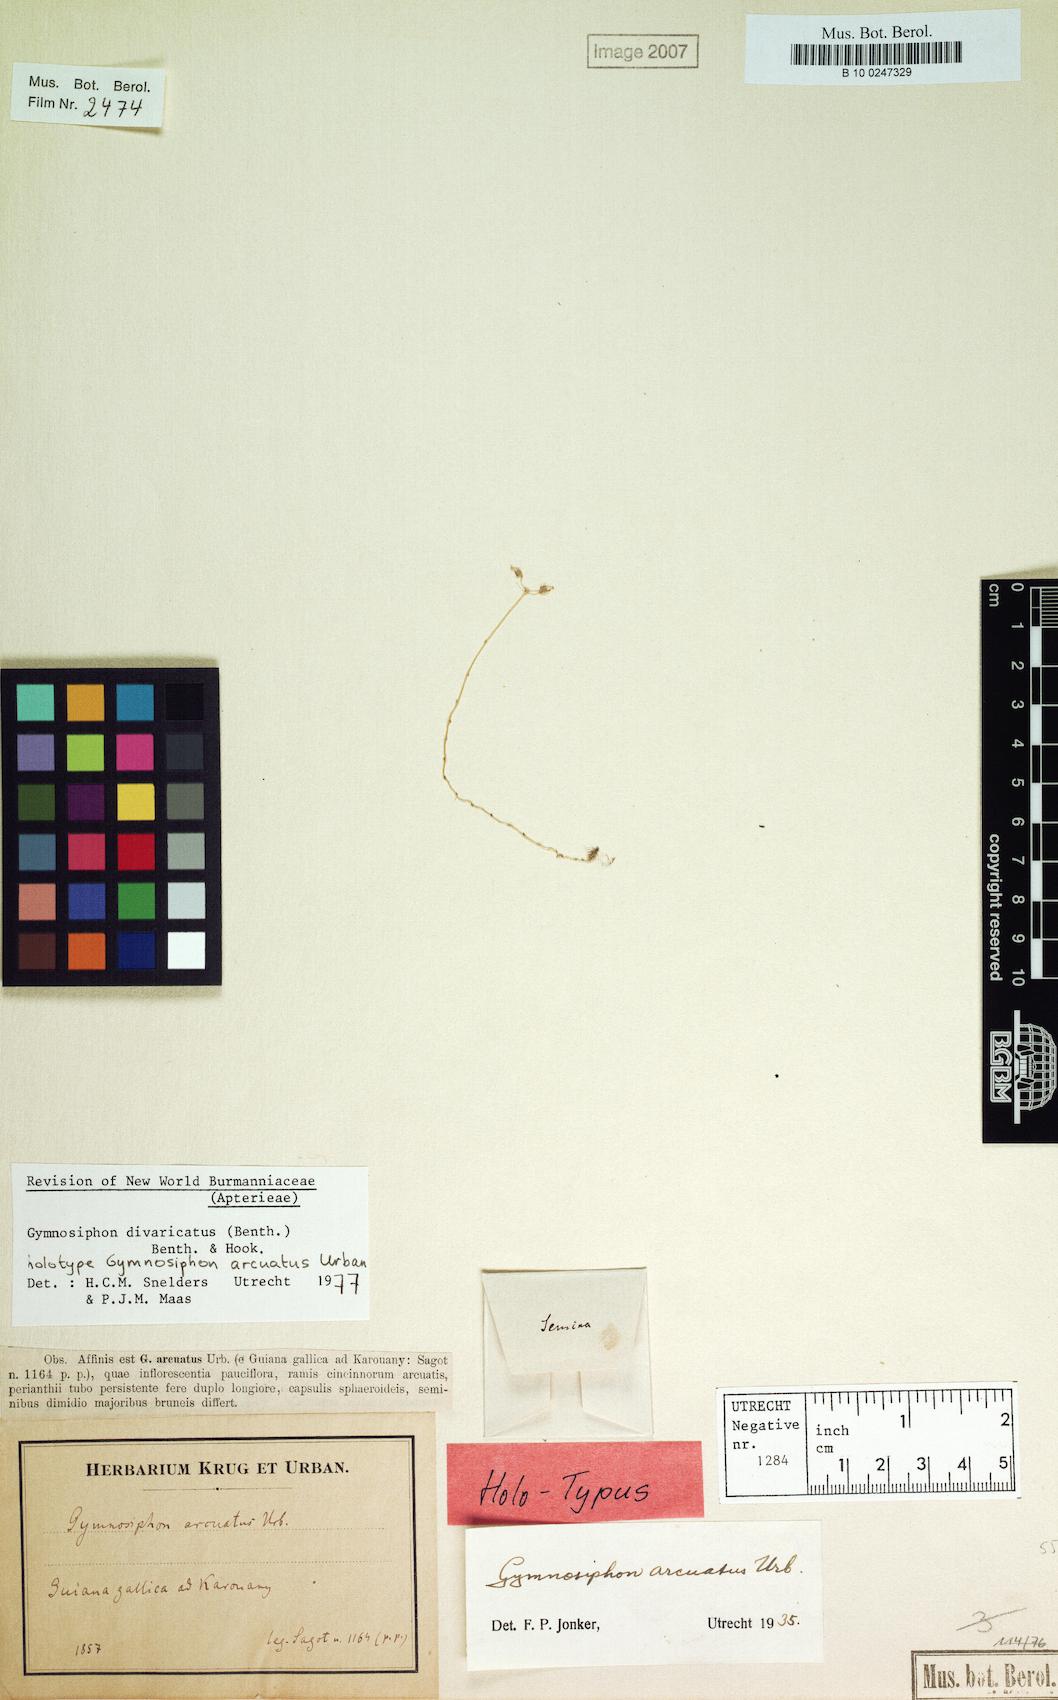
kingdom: Plantae
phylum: Tracheophyta
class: Liliopsida
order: Dioscoreales
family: Burmanniaceae
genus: Gymnosiphon
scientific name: Gymnosiphon divaricatus
